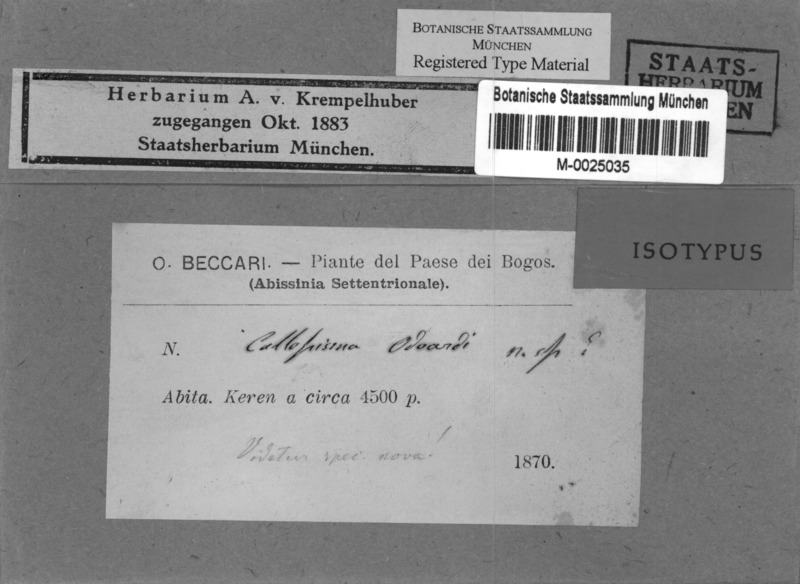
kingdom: Fungi
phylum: Ascomycota
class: Lecanoromycetes
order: Teloschistales
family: Teloschistaceae
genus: Caloplaca
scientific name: Caloplaca
